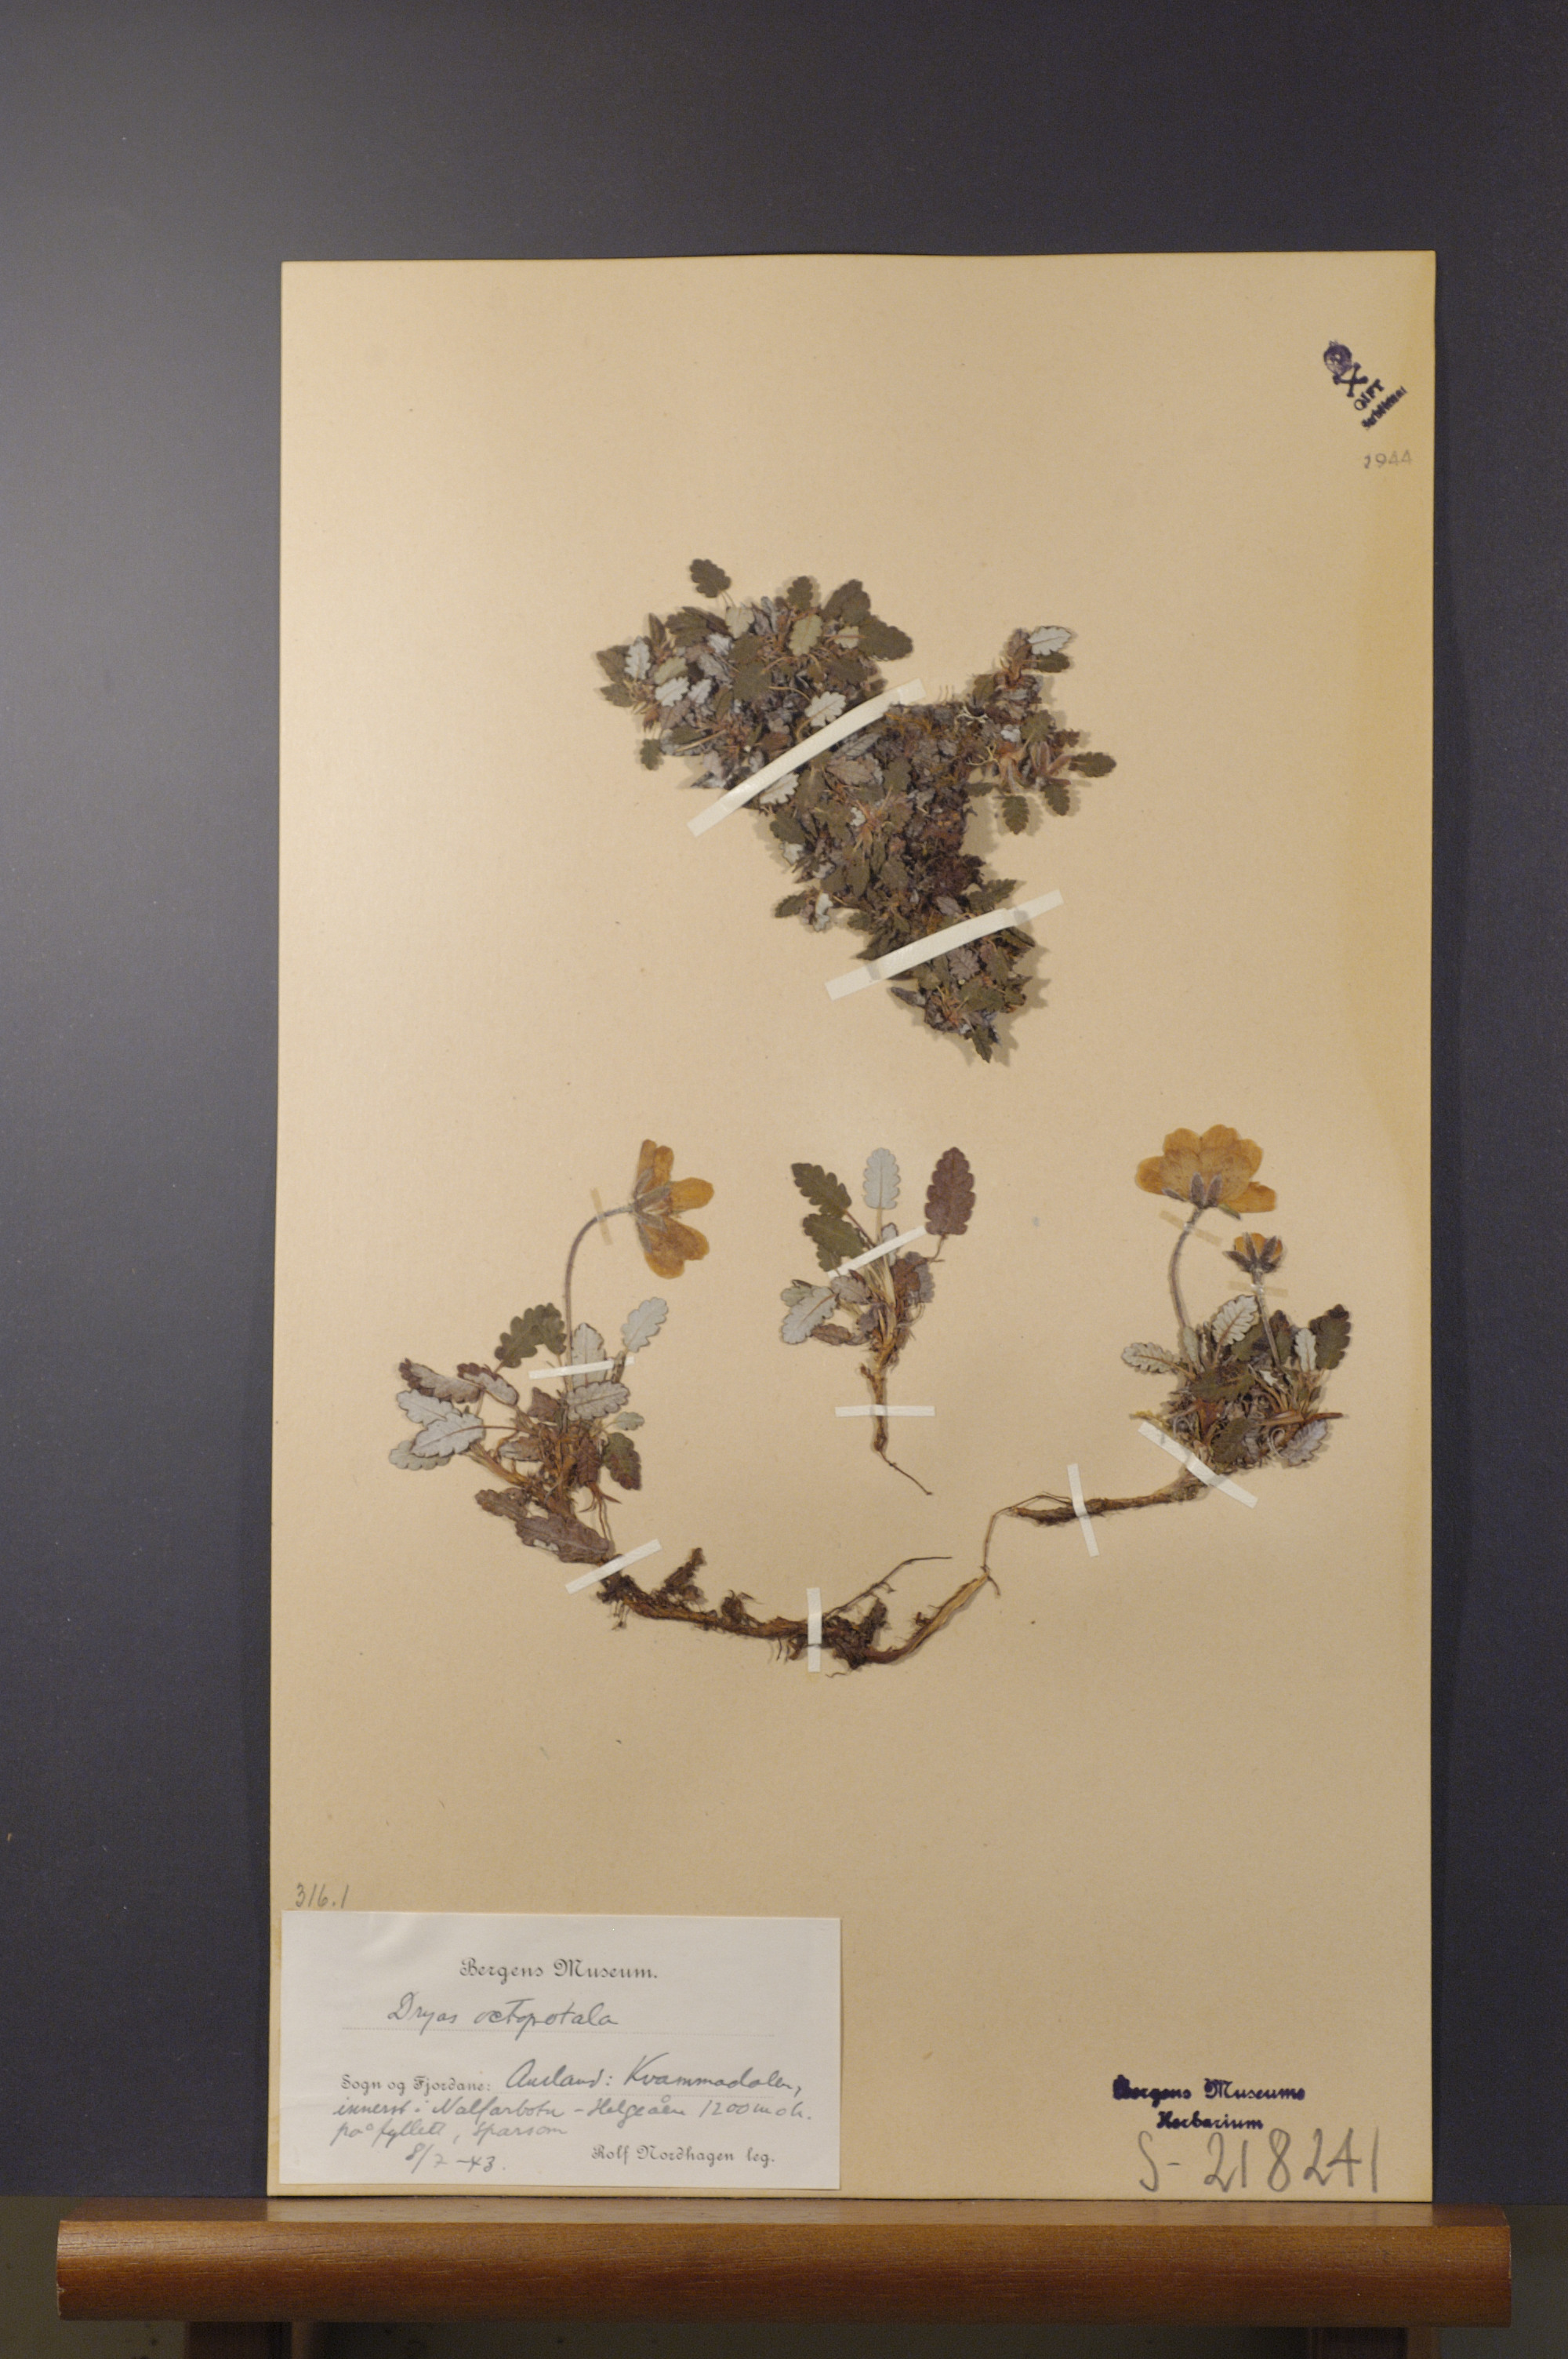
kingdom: Plantae
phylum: Tracheophyta
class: Magnoliopsida
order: Rosales
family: Rosaceae
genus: Dryas
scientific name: Dryas octopetala
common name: Eight-petal mountain-avens
